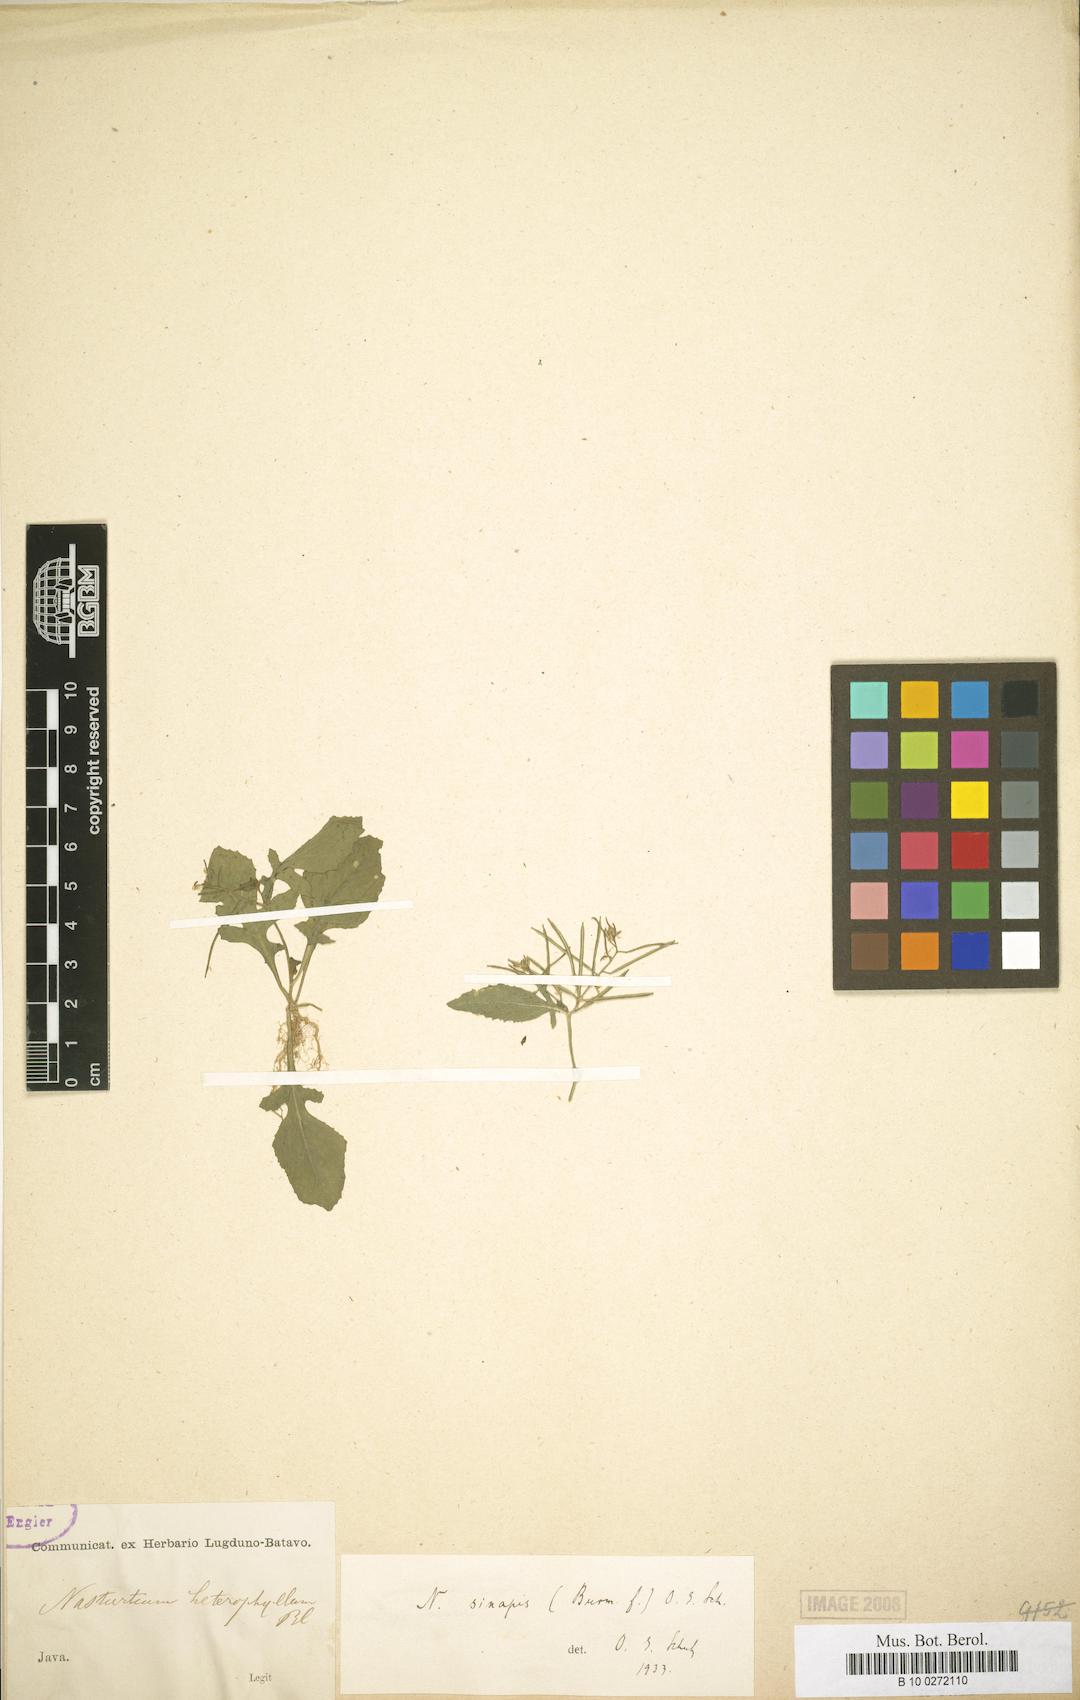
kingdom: Plantae
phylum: Tracheophyta
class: Magnoliopsida
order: Brassicales
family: Brassicaceae
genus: Rorippa
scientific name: Rorippa indica
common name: Variableleaf yellowcress
